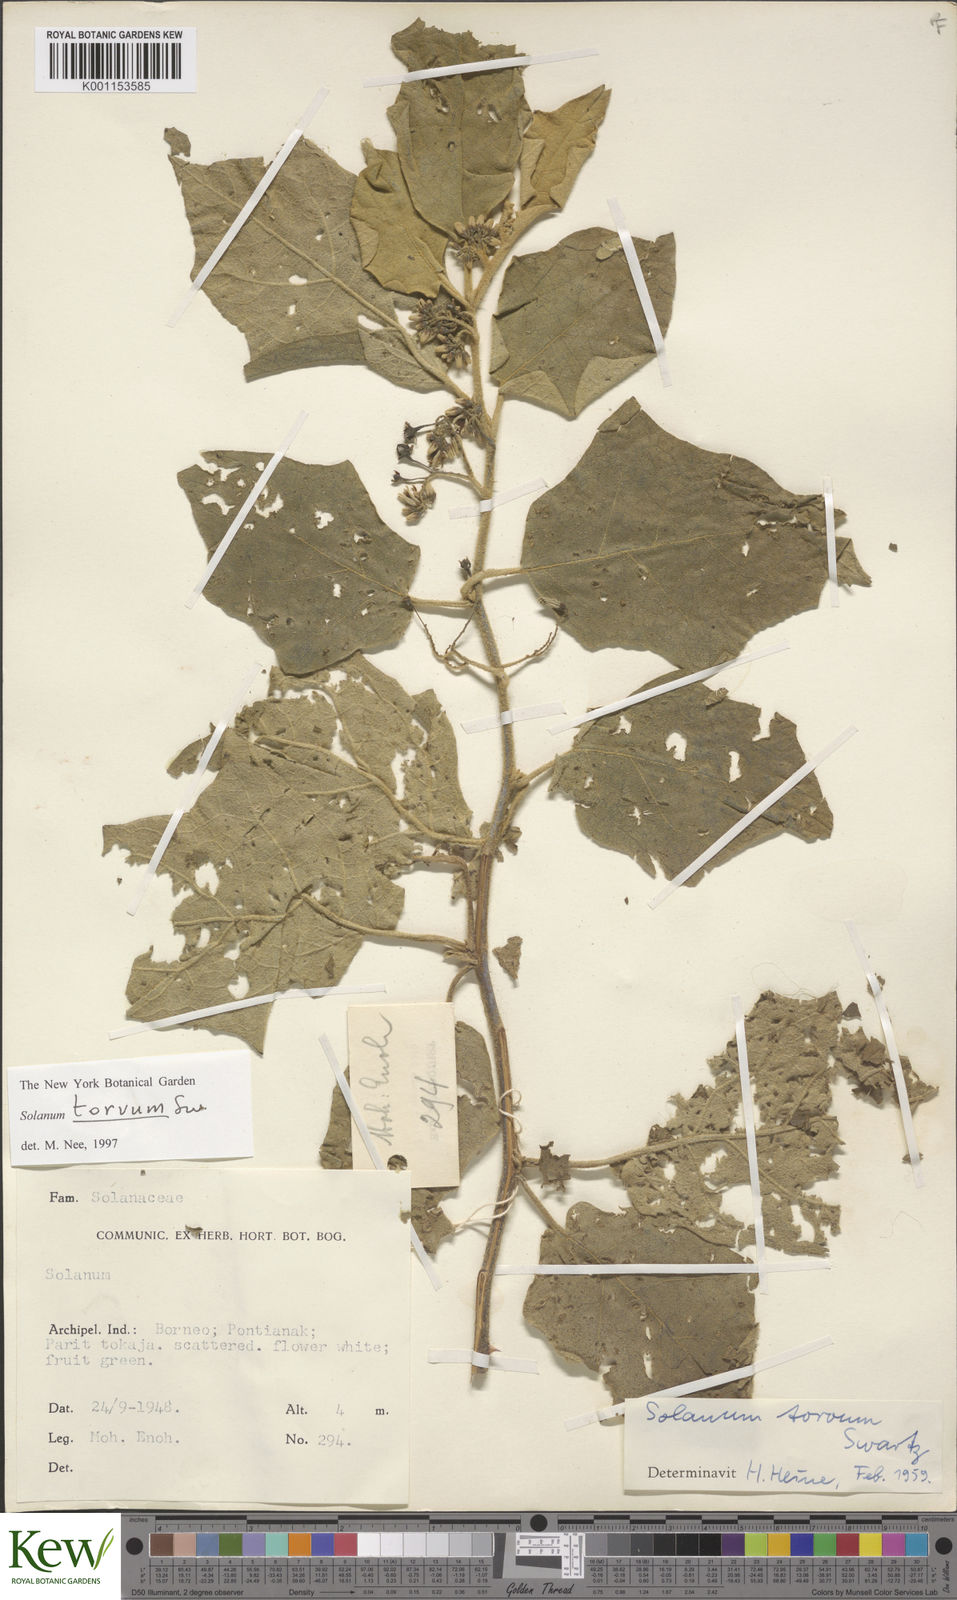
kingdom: Plantae
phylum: Tracheophyta
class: Magnoliopsida
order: Solanales
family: Solanaceae
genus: Solanum
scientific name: Solanum torvum
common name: Turkey berry
